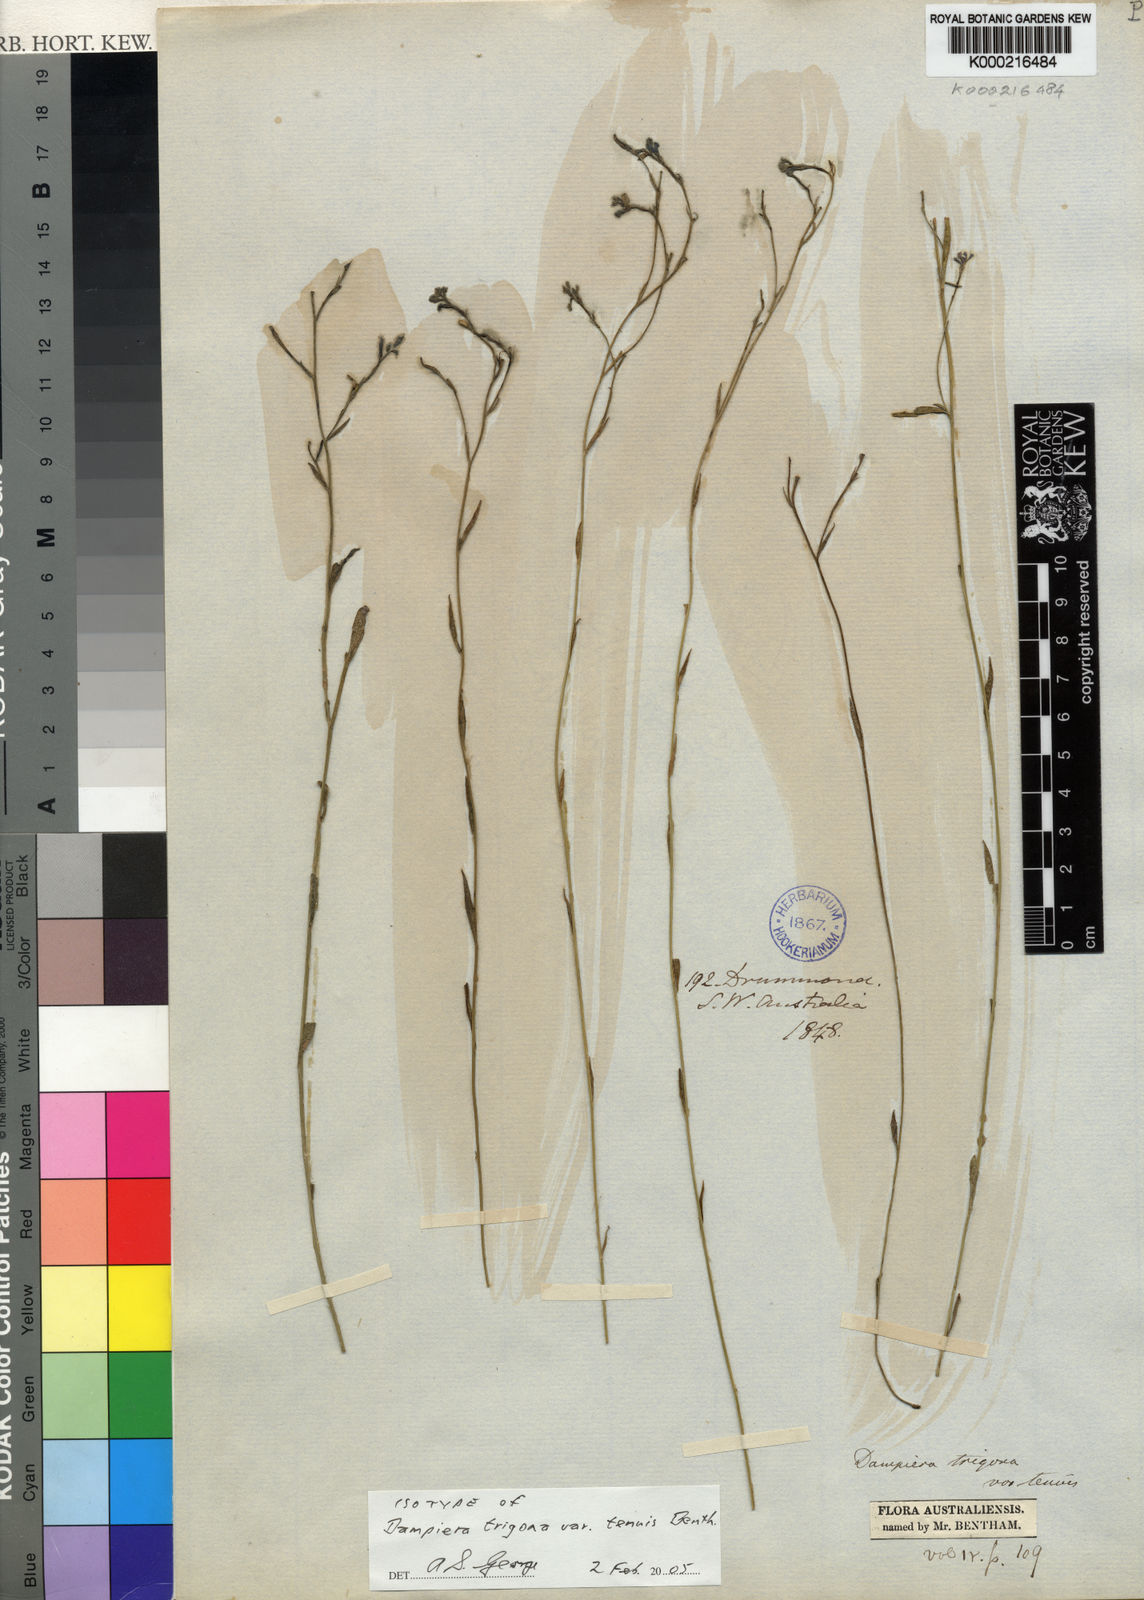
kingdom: Plantae
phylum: Tracheophyta
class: Magnoliopsida
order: Asterales
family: Goodeniaceae
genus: Dampiera
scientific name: Dampiera trigona
